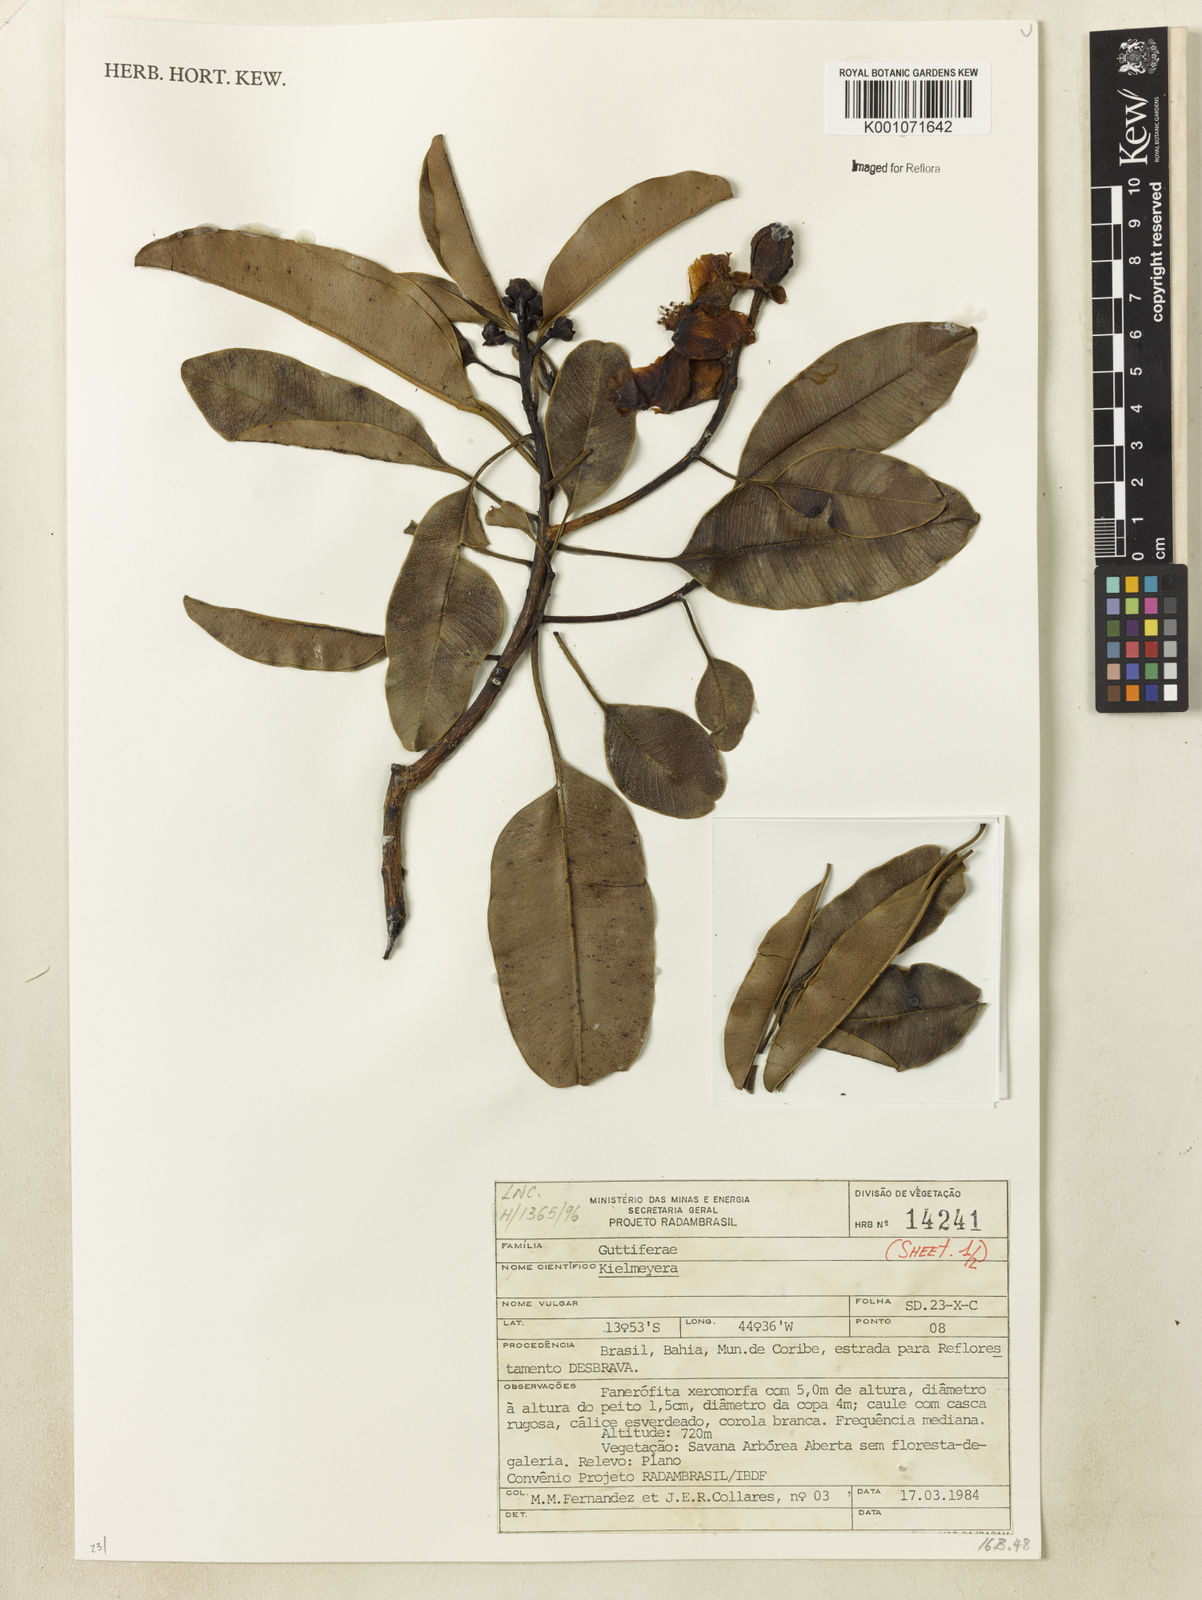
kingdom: Plantae
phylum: Tracheophyta
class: Magnoliopsida
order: Malpighiales
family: Calophyllaceae
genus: Kielmeyera
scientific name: Kielmeyera
